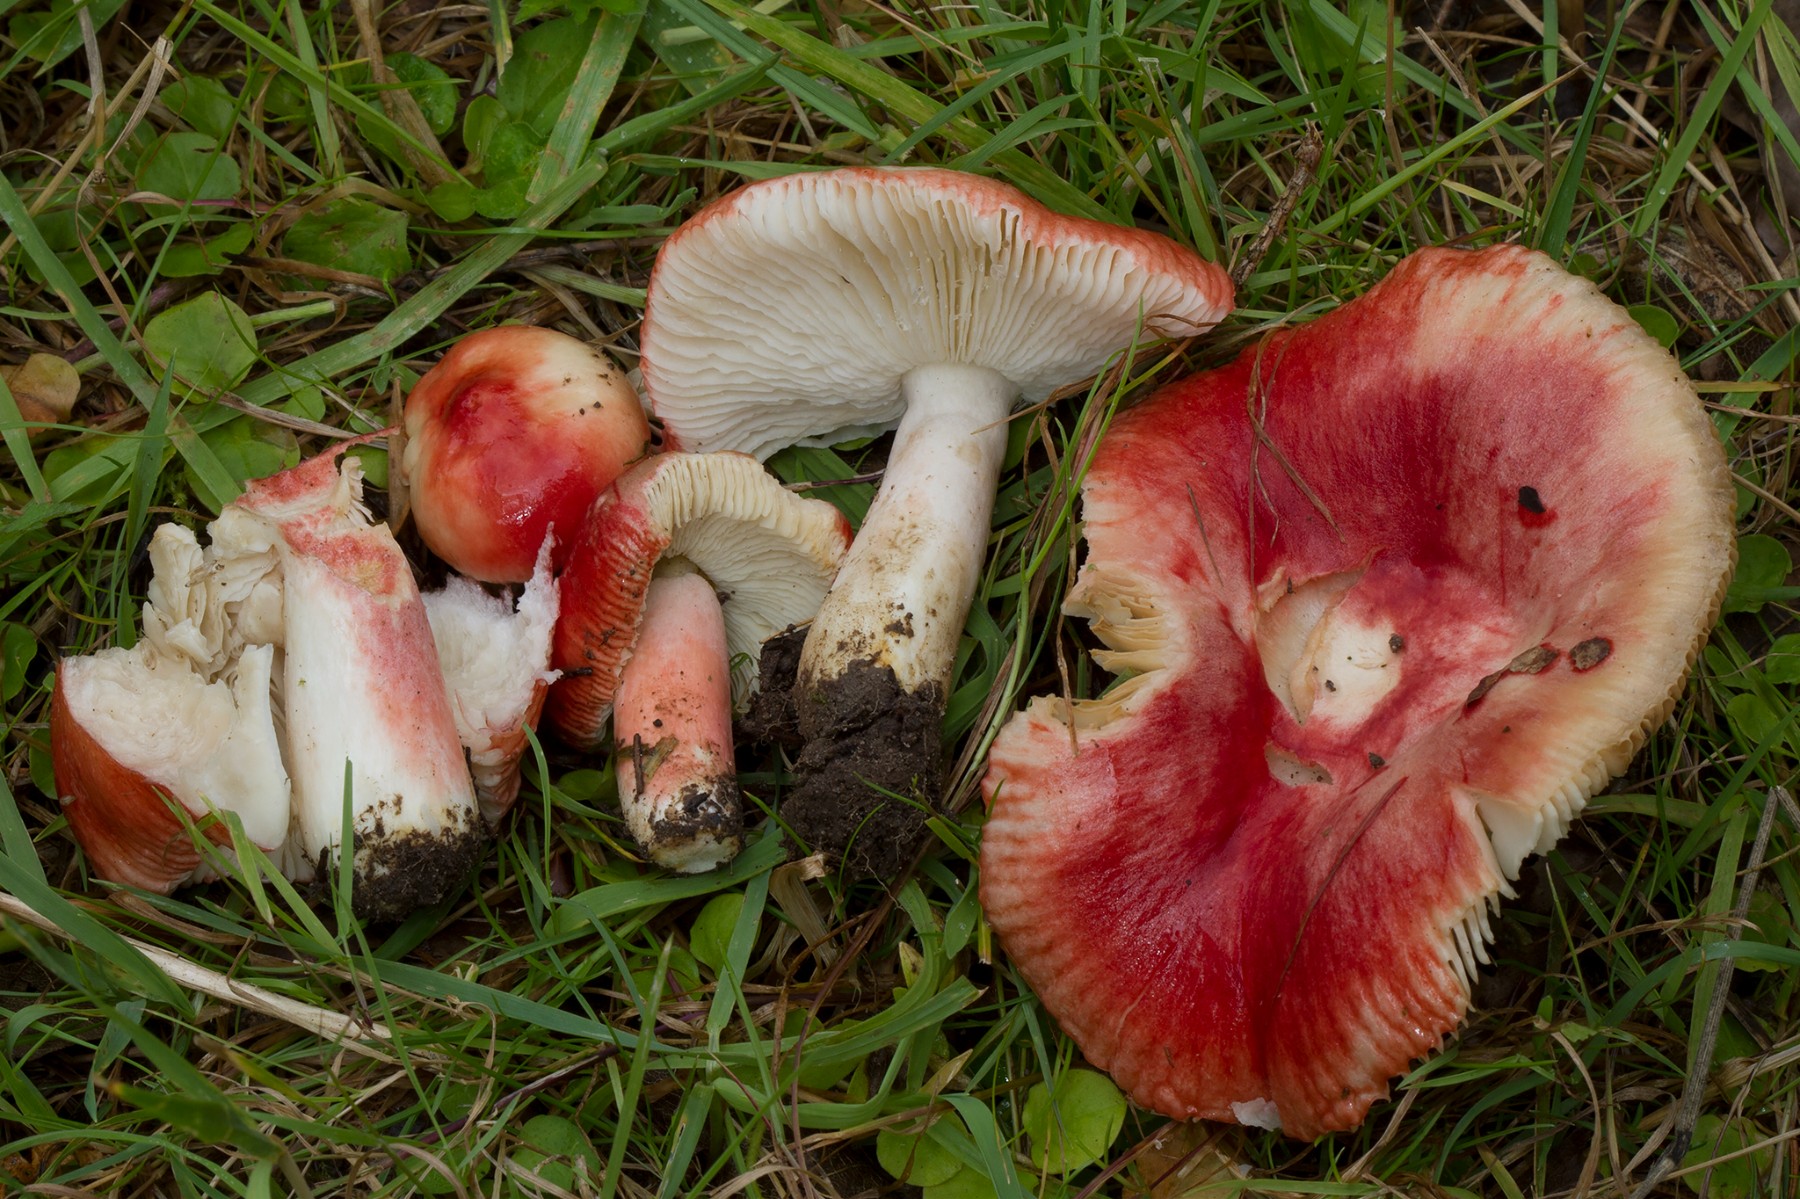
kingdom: Fungi
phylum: Basidiomycota
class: Agaricomycetes
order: Russulales
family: Russulaceae
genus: Russula
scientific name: Russula luteotacta
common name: gulplettet gift-skørhat
